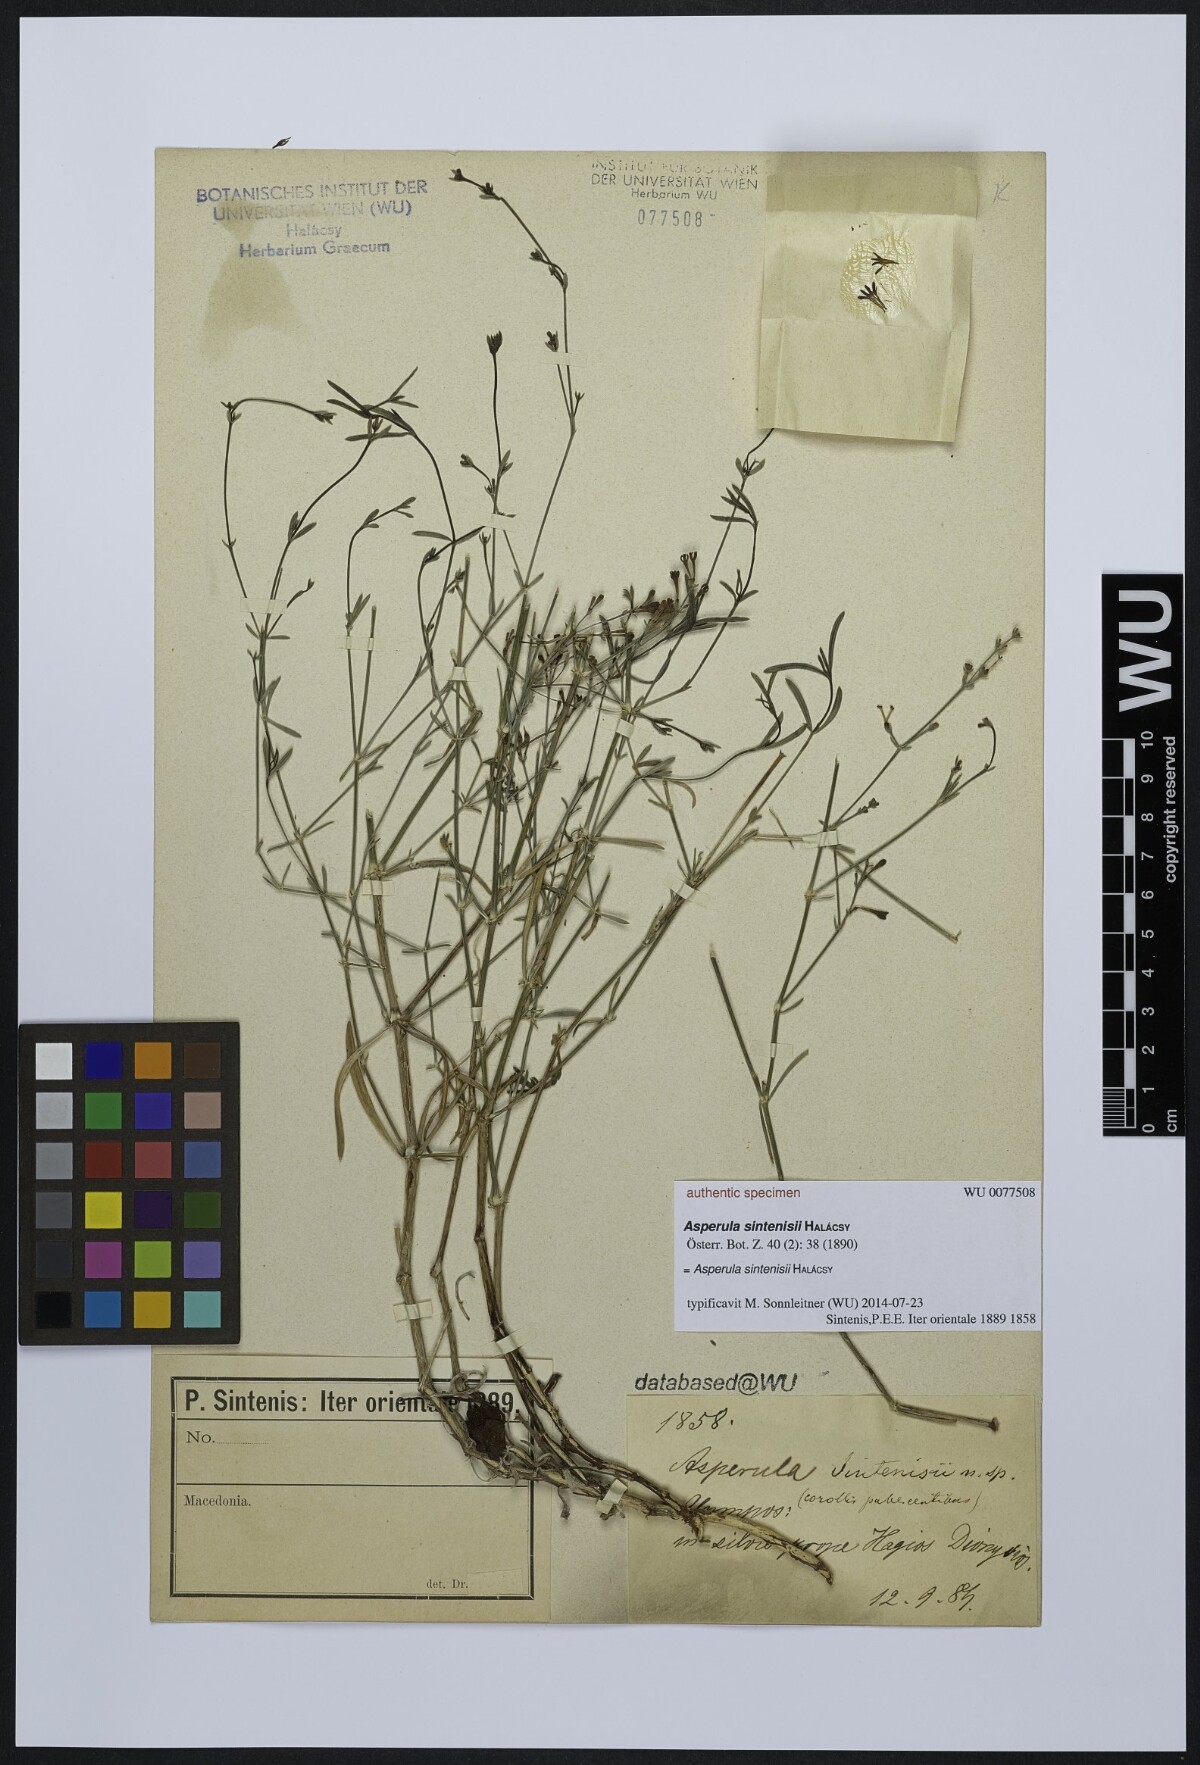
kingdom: Plantae
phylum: Tracheophyta
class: Magnoliopsida
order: Gentianales
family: Rubiaceae
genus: Cynanchica
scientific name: Cynanchica puberula
